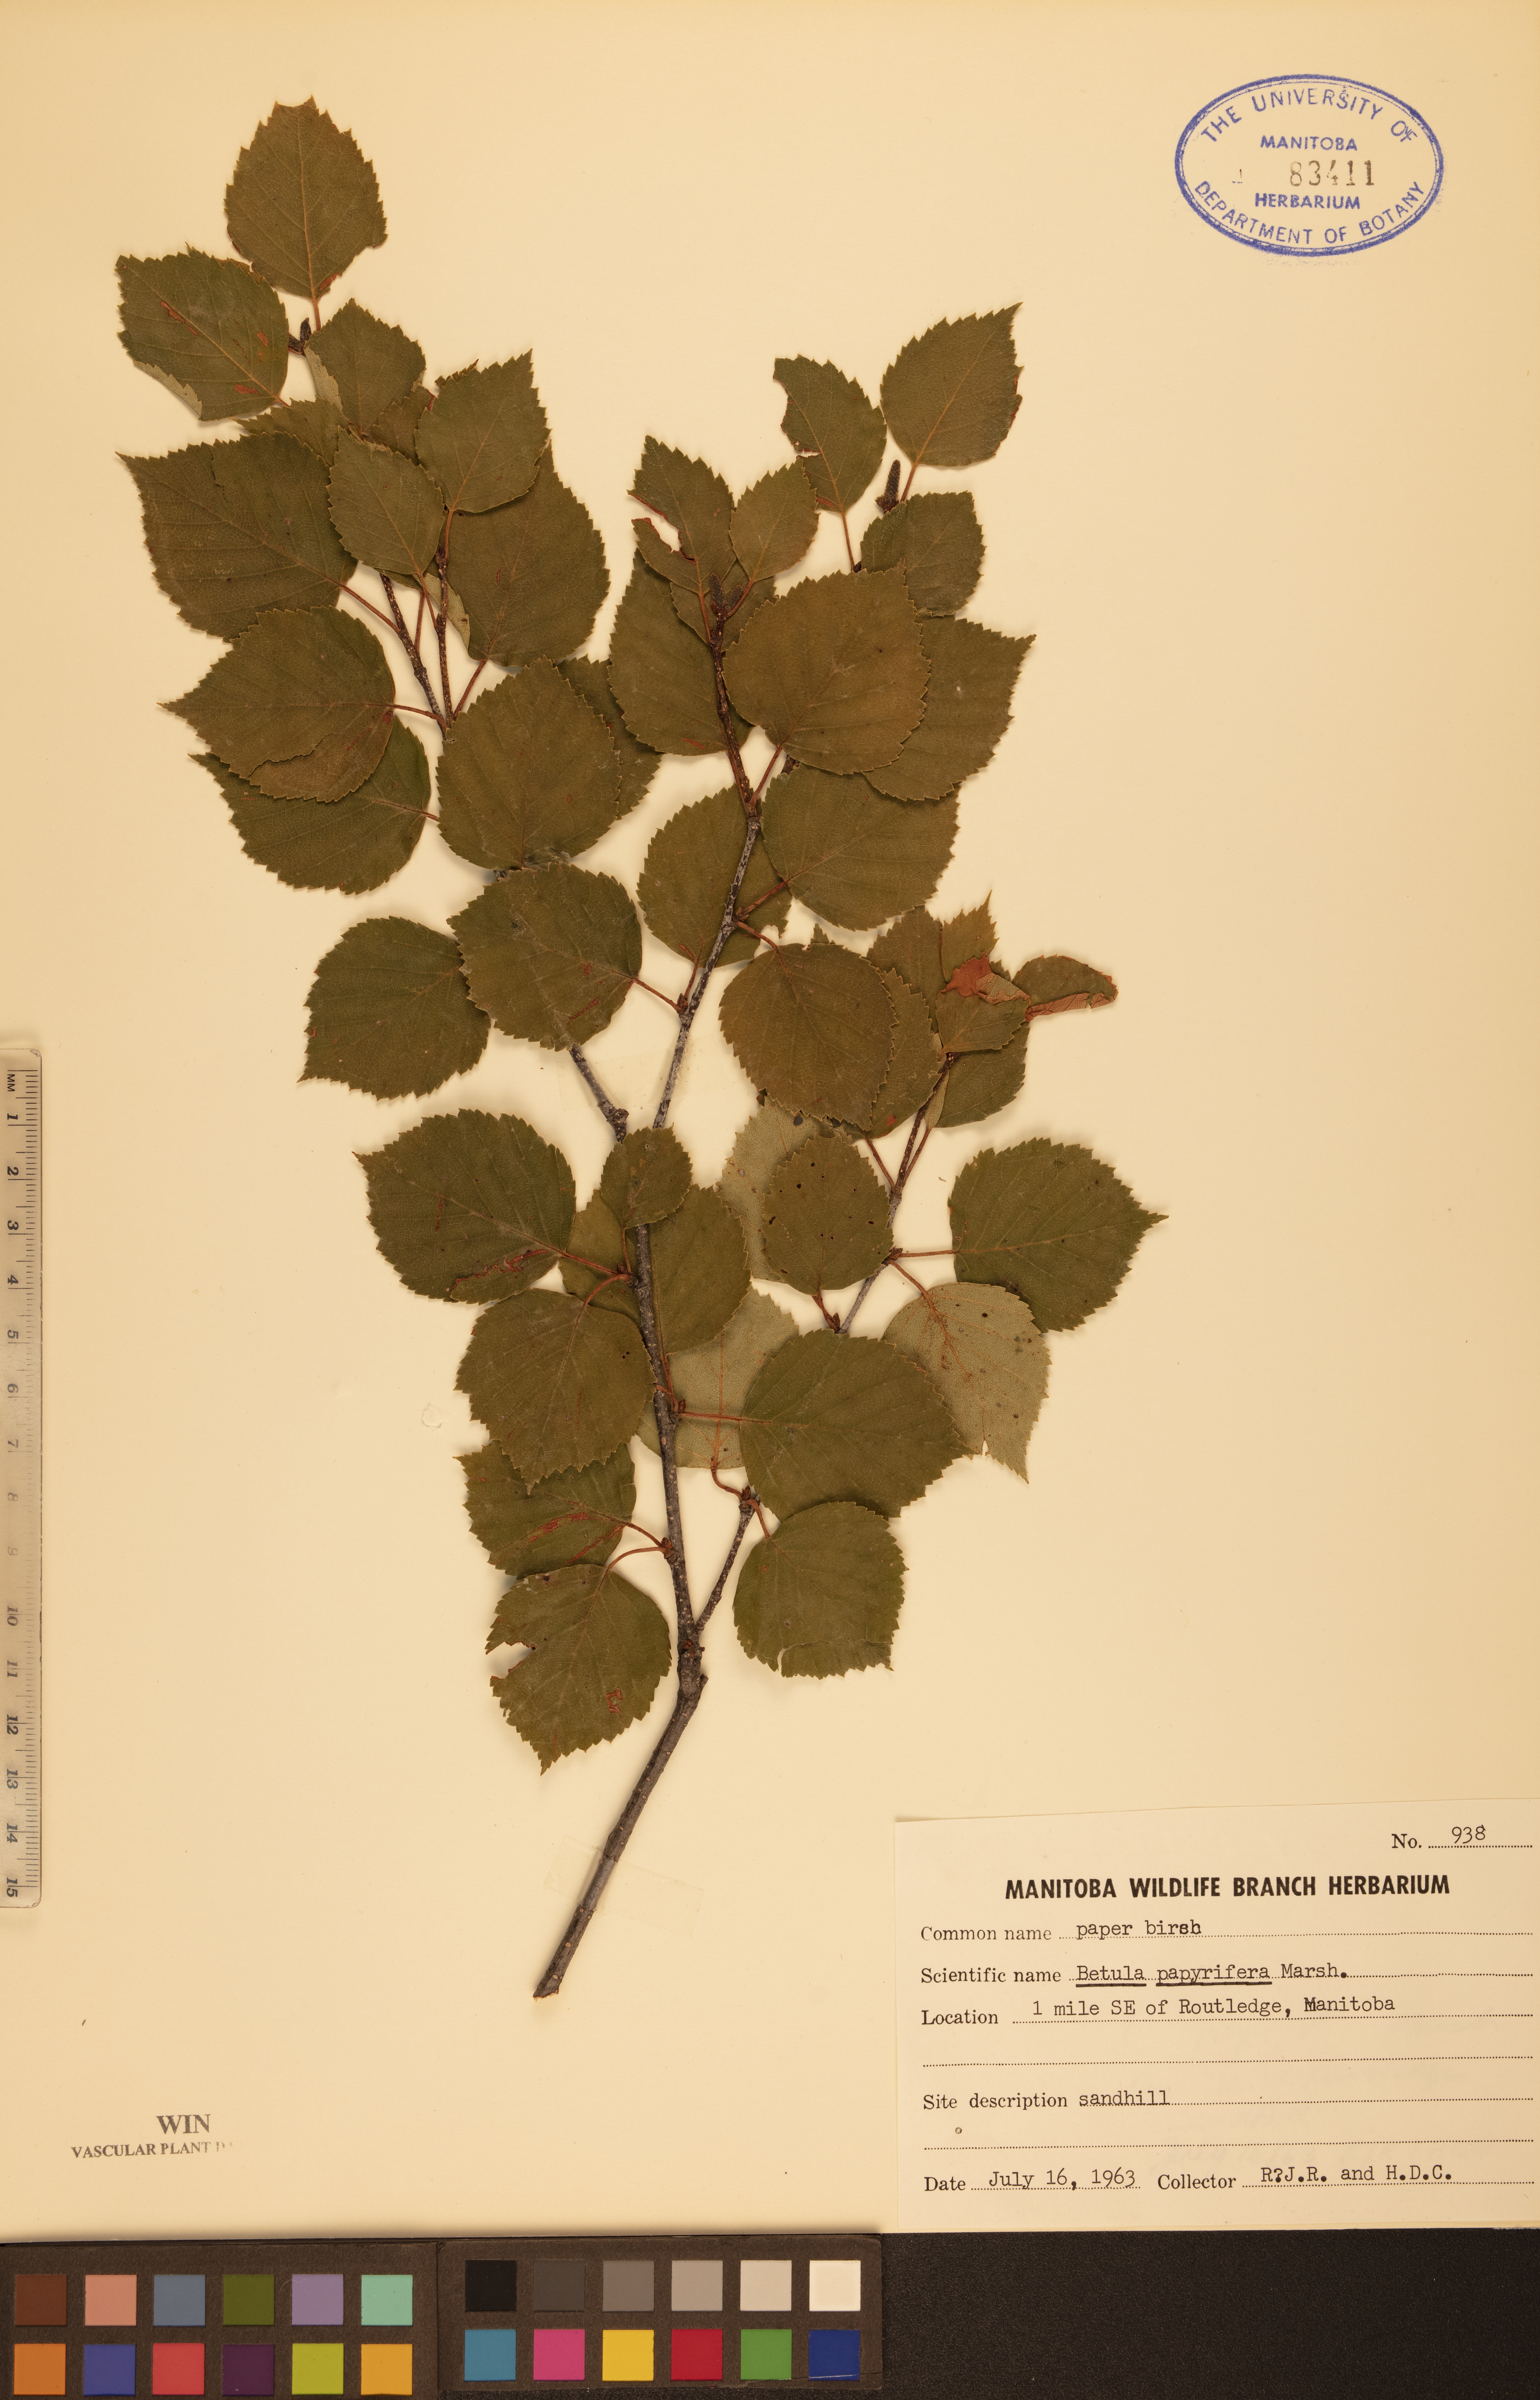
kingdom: Plantae
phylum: Tracheophyta
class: Magnoliopsida
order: Fagales
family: Betulaceae
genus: Betula
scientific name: Betula papyrifera
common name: Paper birch
